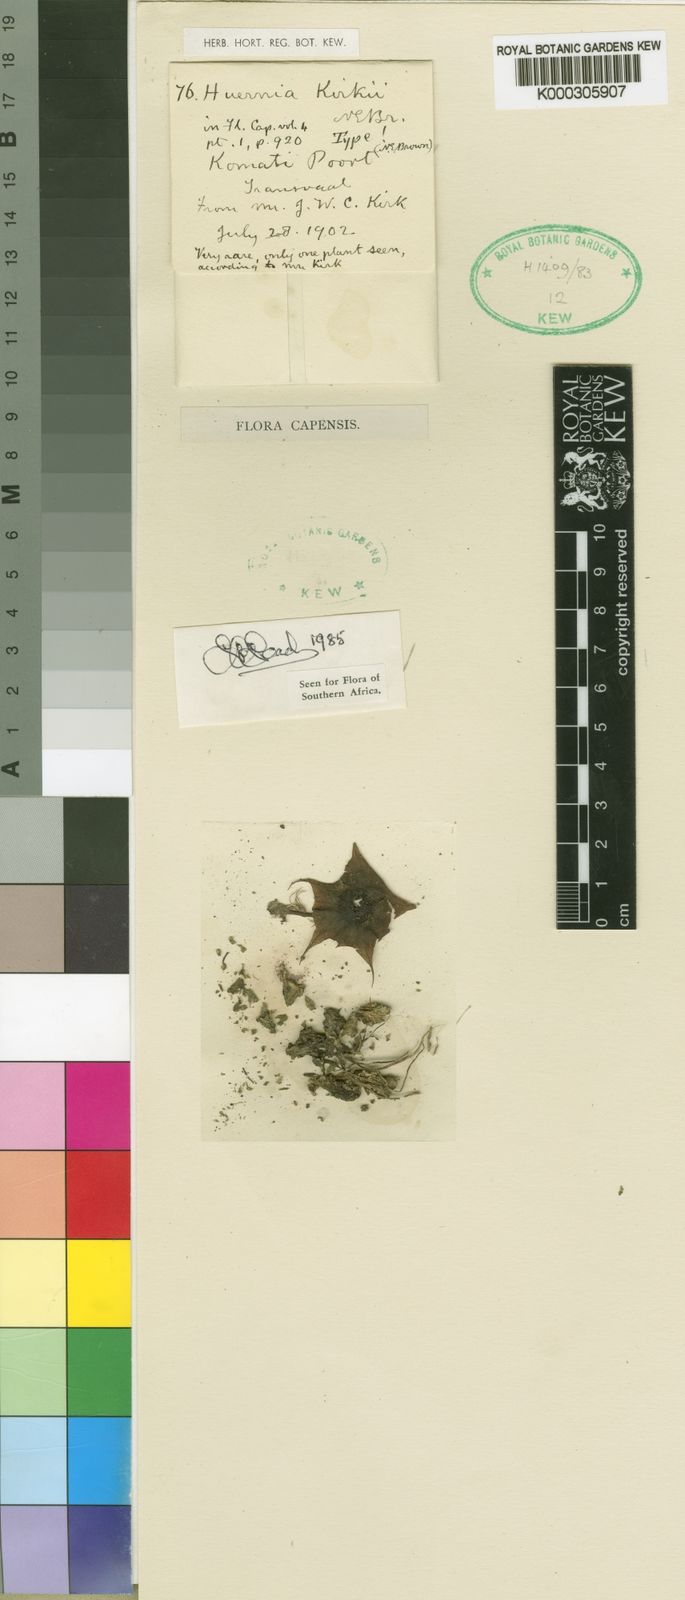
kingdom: Plantae
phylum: Tracheophyta
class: Magnoliopsida
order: Gentianales
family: Apocynaceae
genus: Ceropegia
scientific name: Ceropegia kirkii
